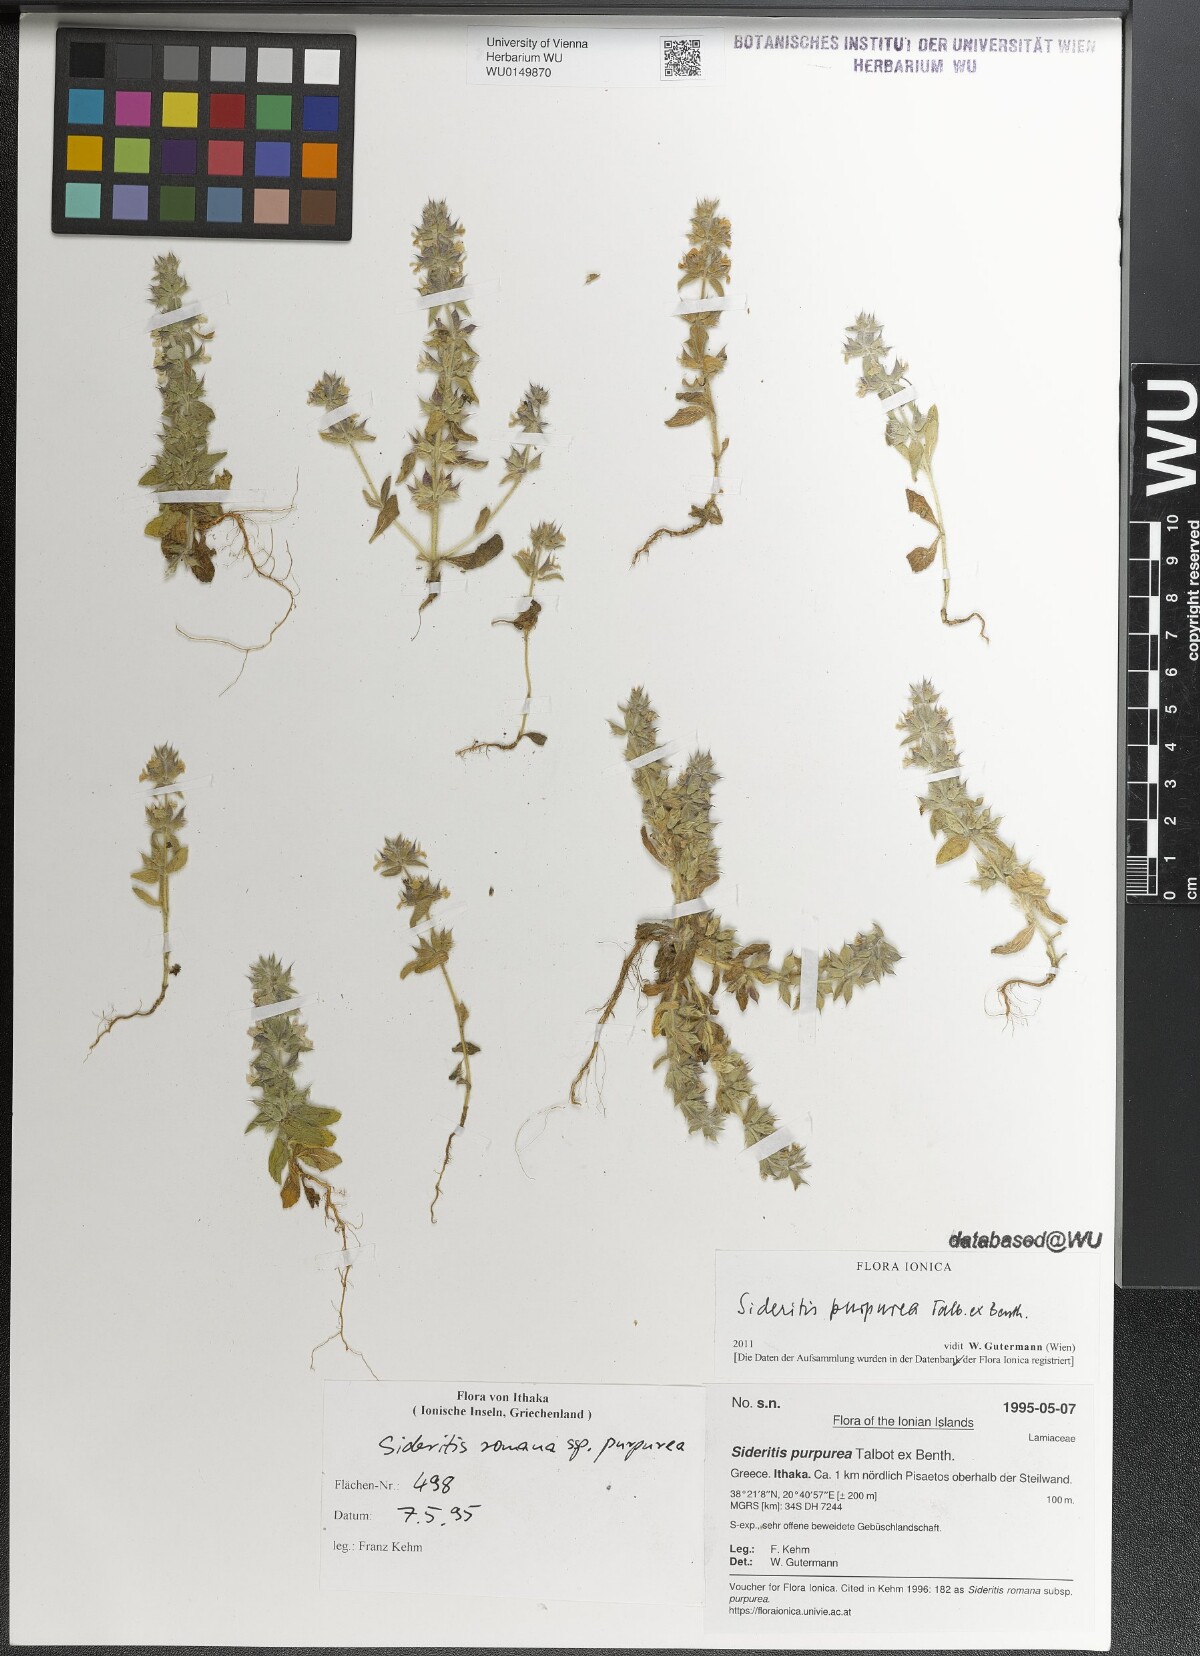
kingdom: Plantae
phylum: Tracheophyta
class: Magnoliopsida
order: Lamiales
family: Lamiaceae
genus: Sideritis
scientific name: Sideritis romana
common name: Simplebeak ironwort
